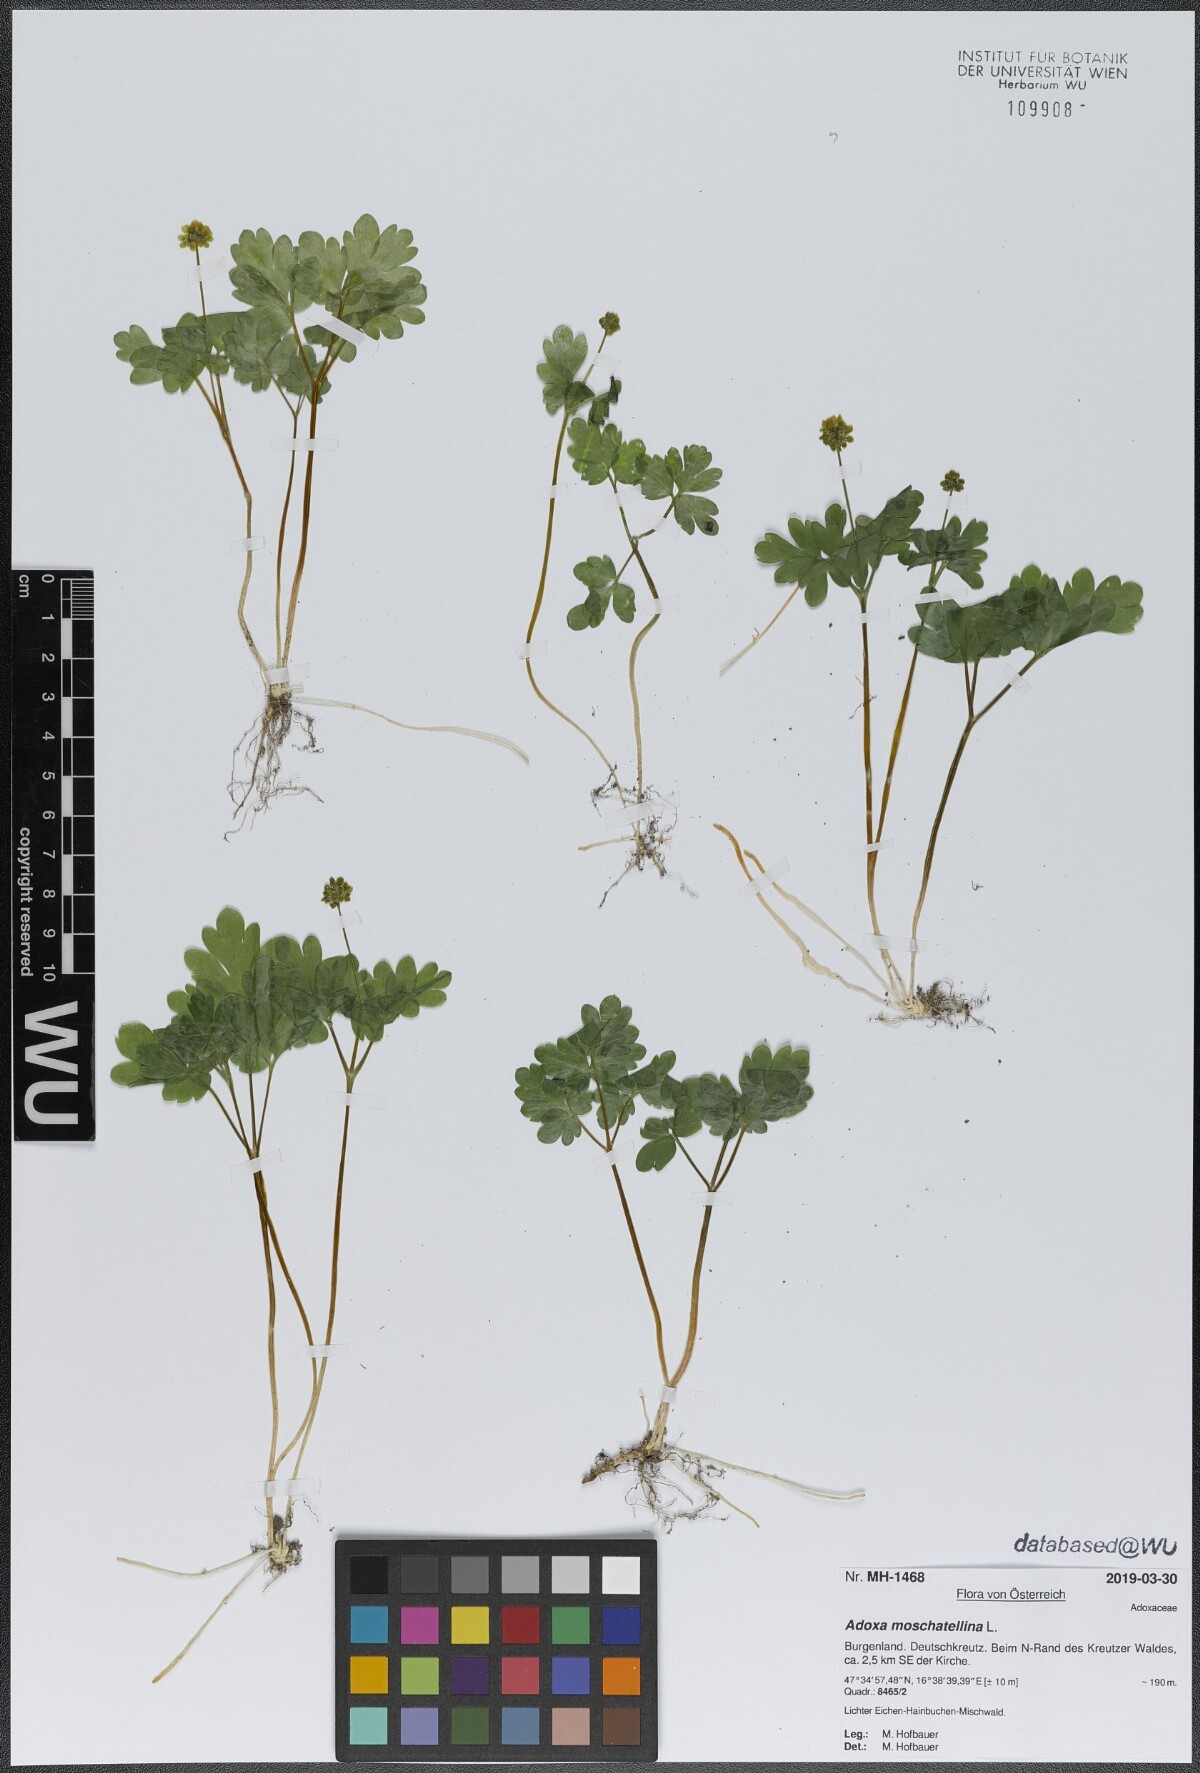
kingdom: Plantae
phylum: Tracheophyta
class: Magnoliopsida
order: Dipsacales
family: Viburnaceae
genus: Adoxa
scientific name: Adoxa moschatellina
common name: Moschatel
